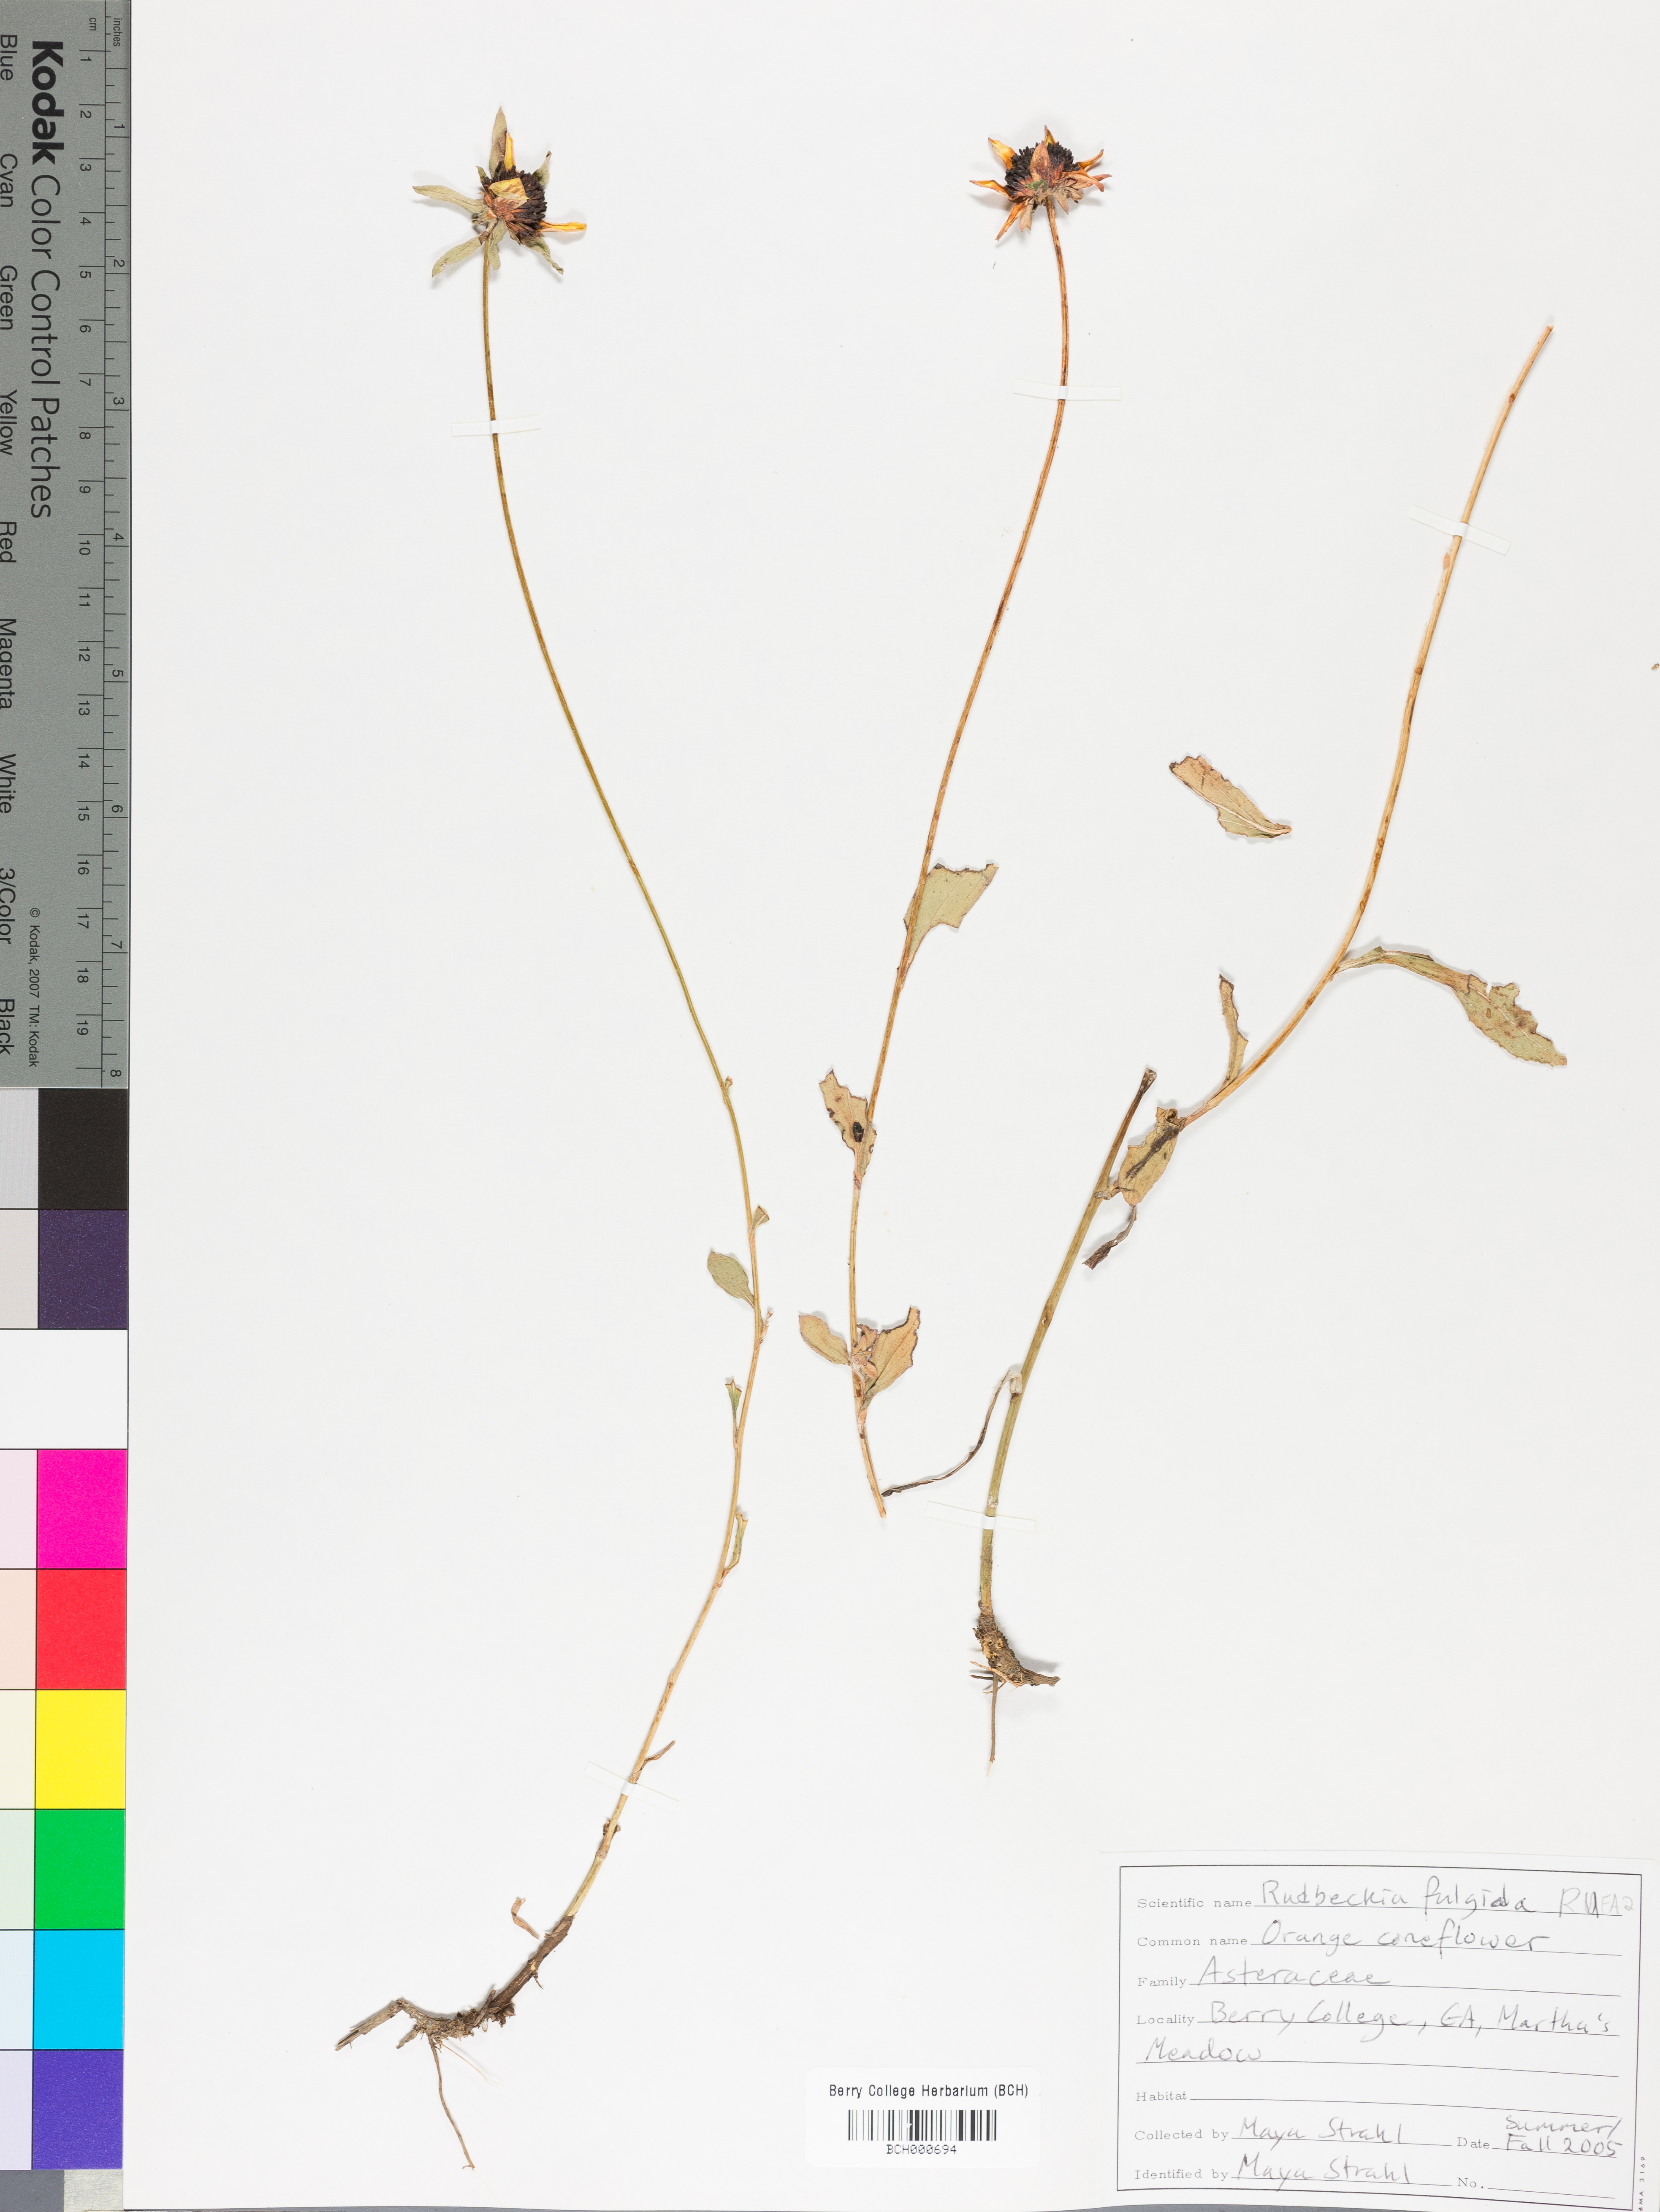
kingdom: Plantae
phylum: Tracheophyta
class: Magnoliopsida
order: Asterales
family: Asteraceae
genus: Rudbeckia
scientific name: Rudbeckia fulgida
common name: Perennial coneflower
